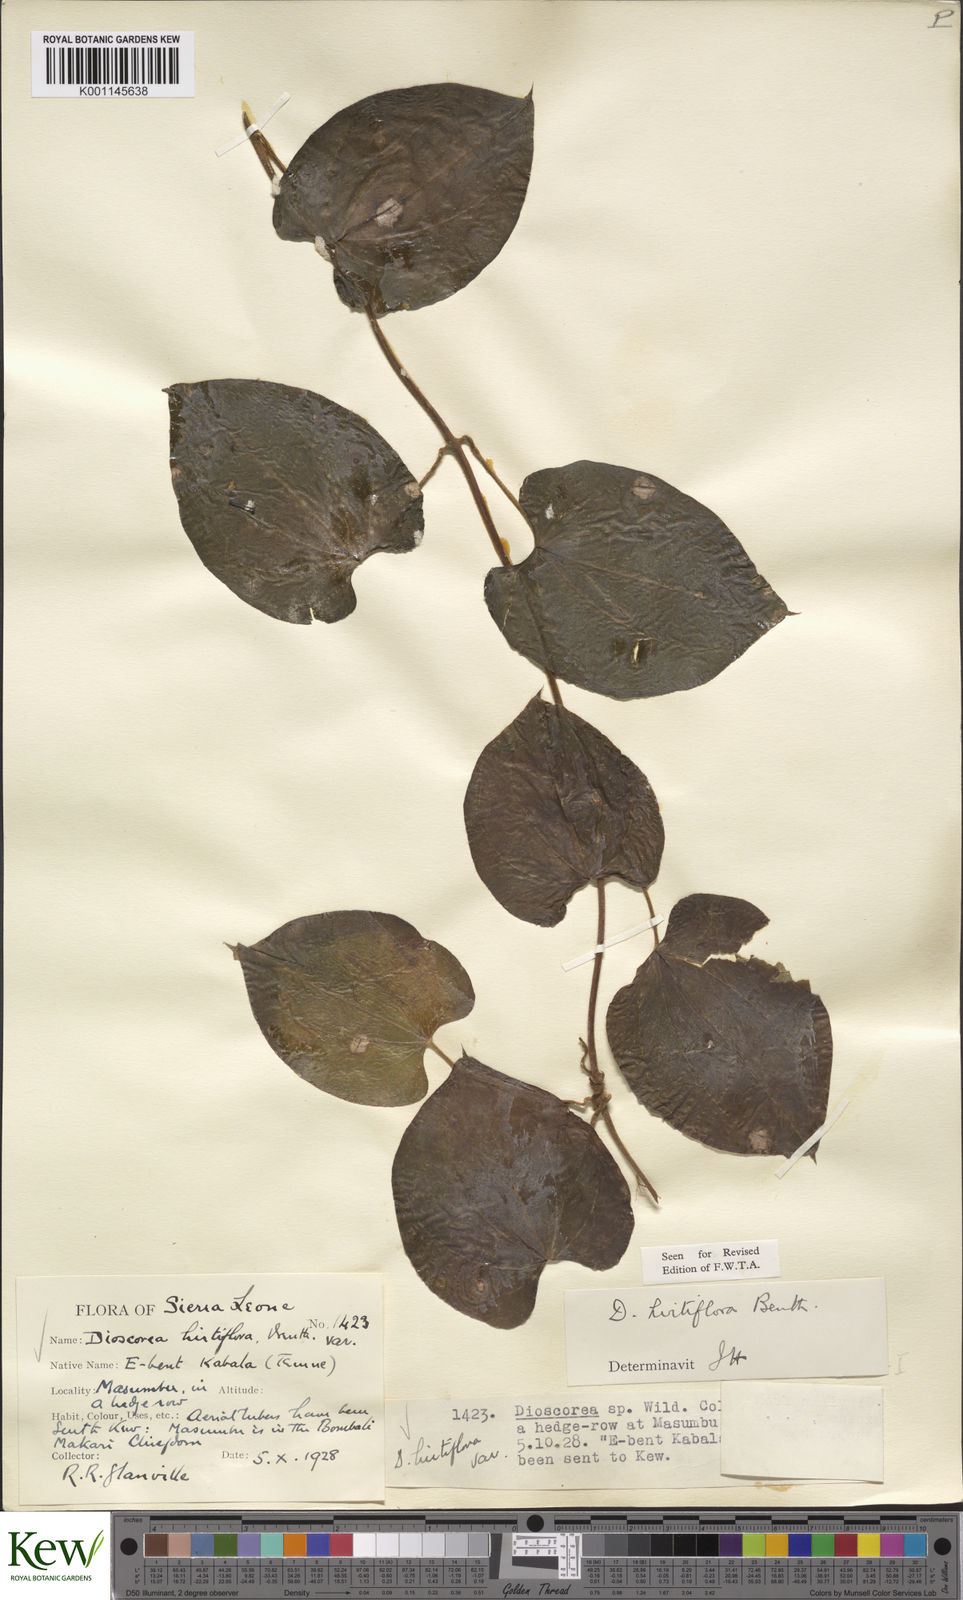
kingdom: Plantae
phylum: Tracheophyta
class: Liliopsida
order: Dioscoreales
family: Dioscoreaceae
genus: Dioscorea
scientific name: Dioscorea hirtiflora
